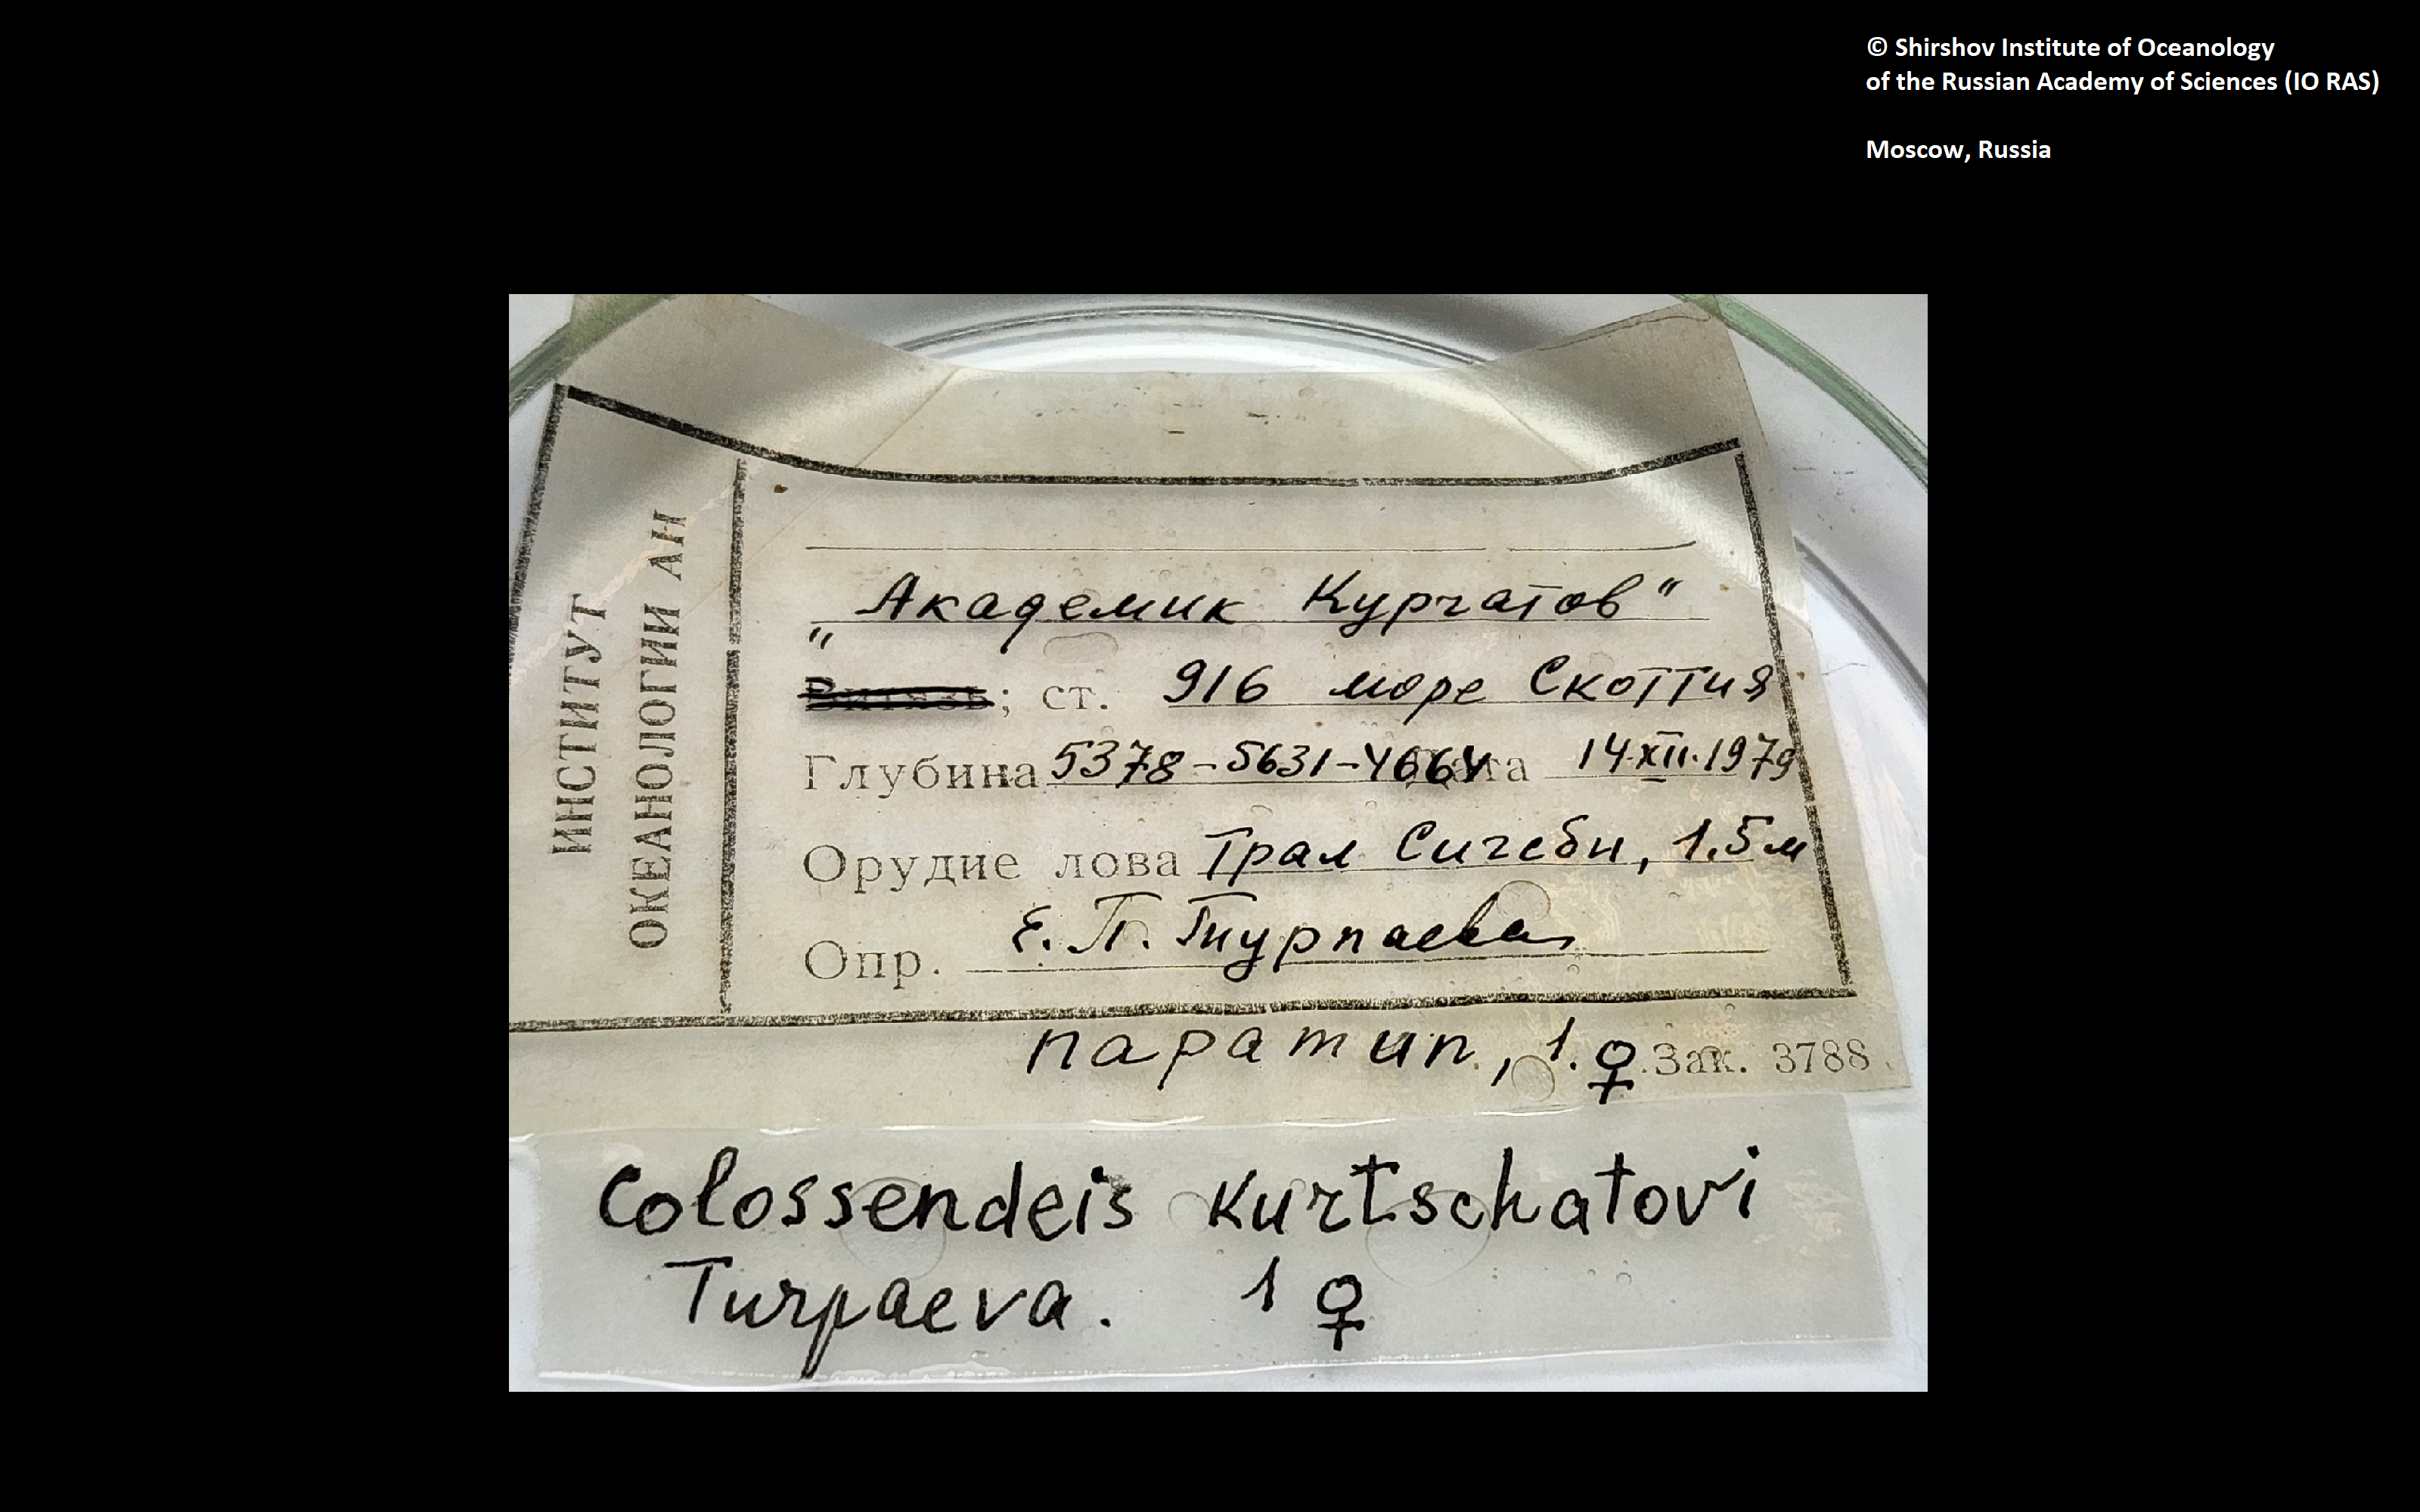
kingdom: Animalia
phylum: Arthropoda
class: Pycnogonida
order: Pantopoda
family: Colossendeidae
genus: Colossendeis
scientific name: Colossendeis kurtchatovi
